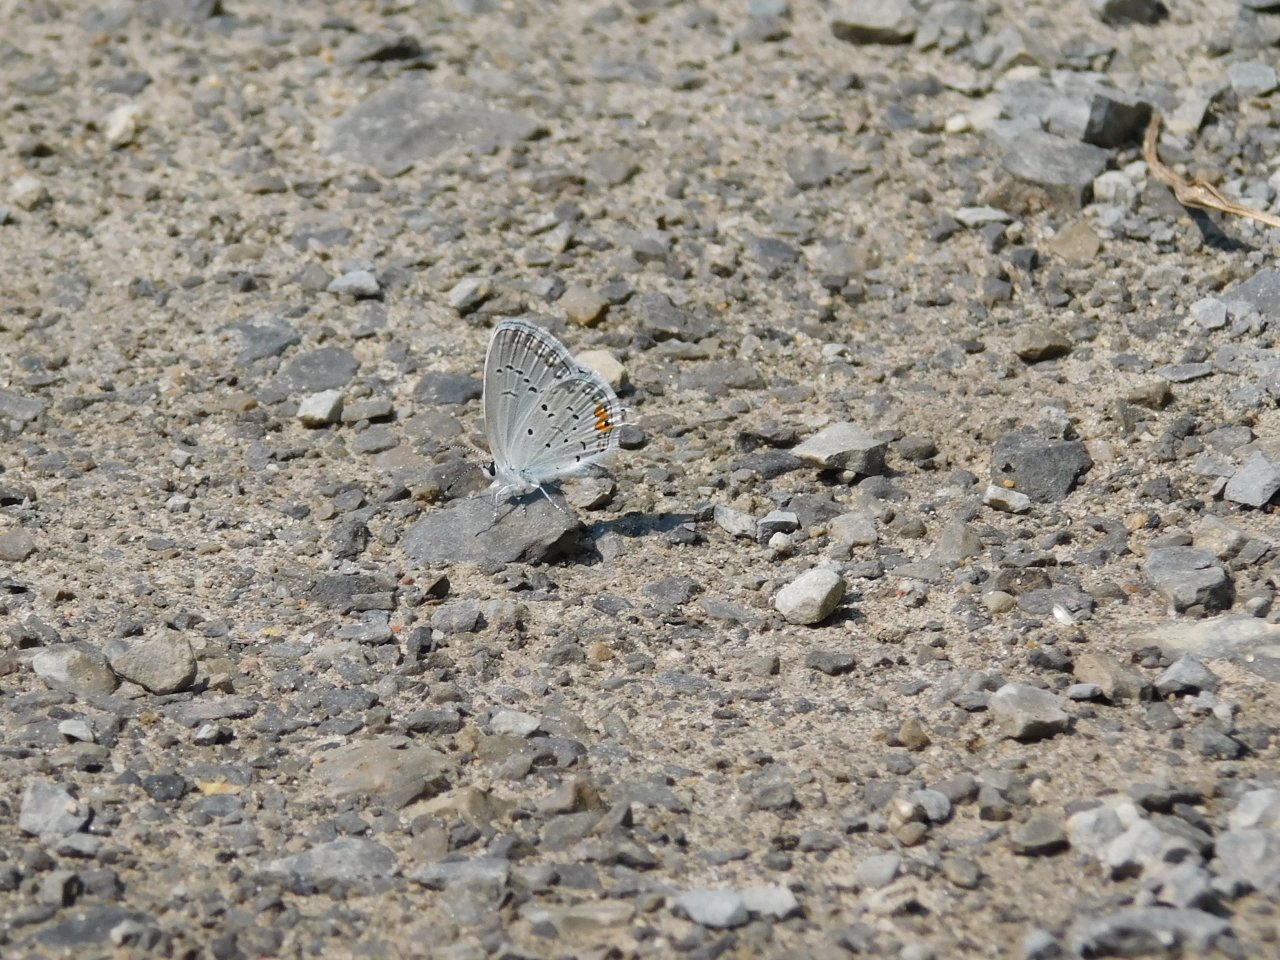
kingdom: Animalia
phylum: Arthropoda
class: Insecta
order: Lepidoptera
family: Lycaenidae
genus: Elkalyce
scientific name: Elkalyce comyntas
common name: Eastern Tailed-Blue
